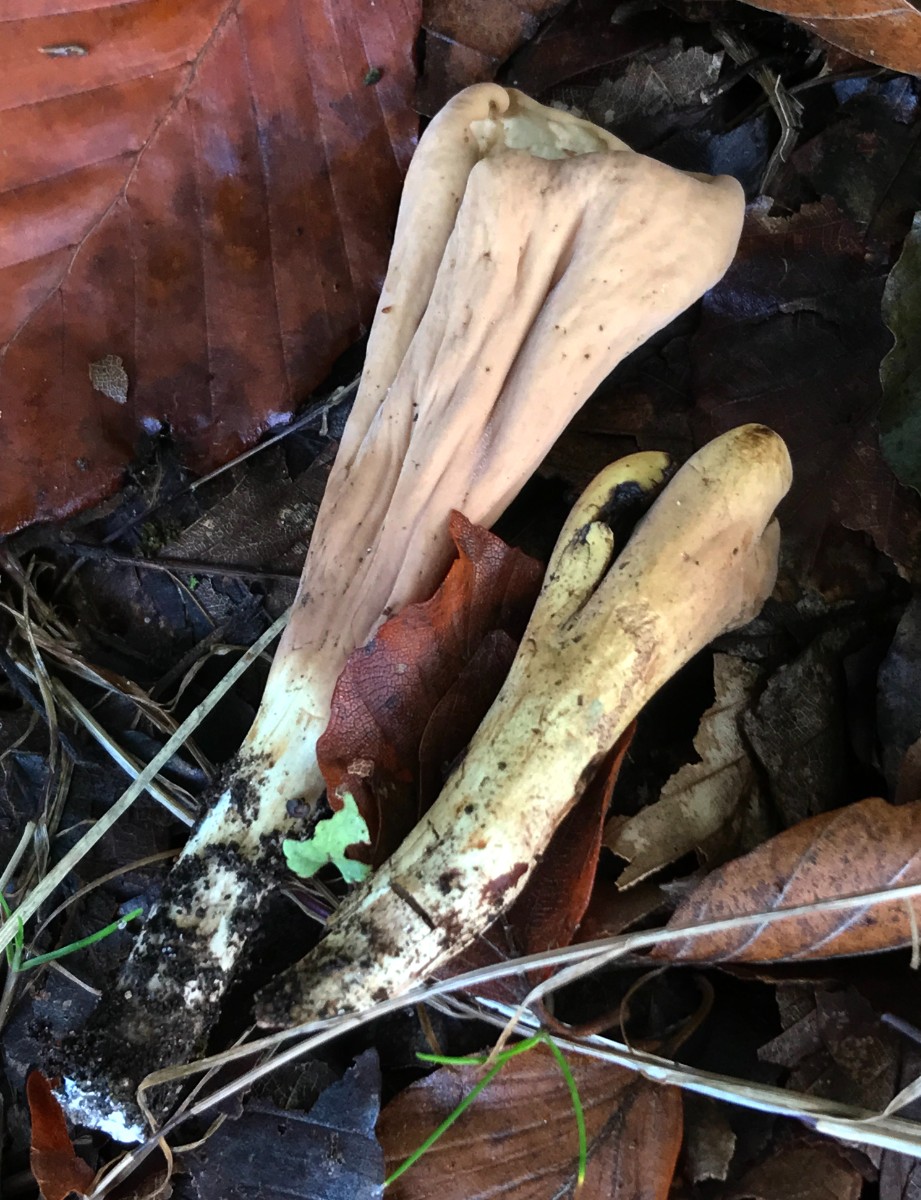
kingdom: Fungi
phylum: Basidiomycota
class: Agaricomycetes
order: Gomphales
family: Clavariadelphaceae
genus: Clavariadelphus
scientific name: Clavariadelphus pistillaris
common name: herkules-kæmpekølle
